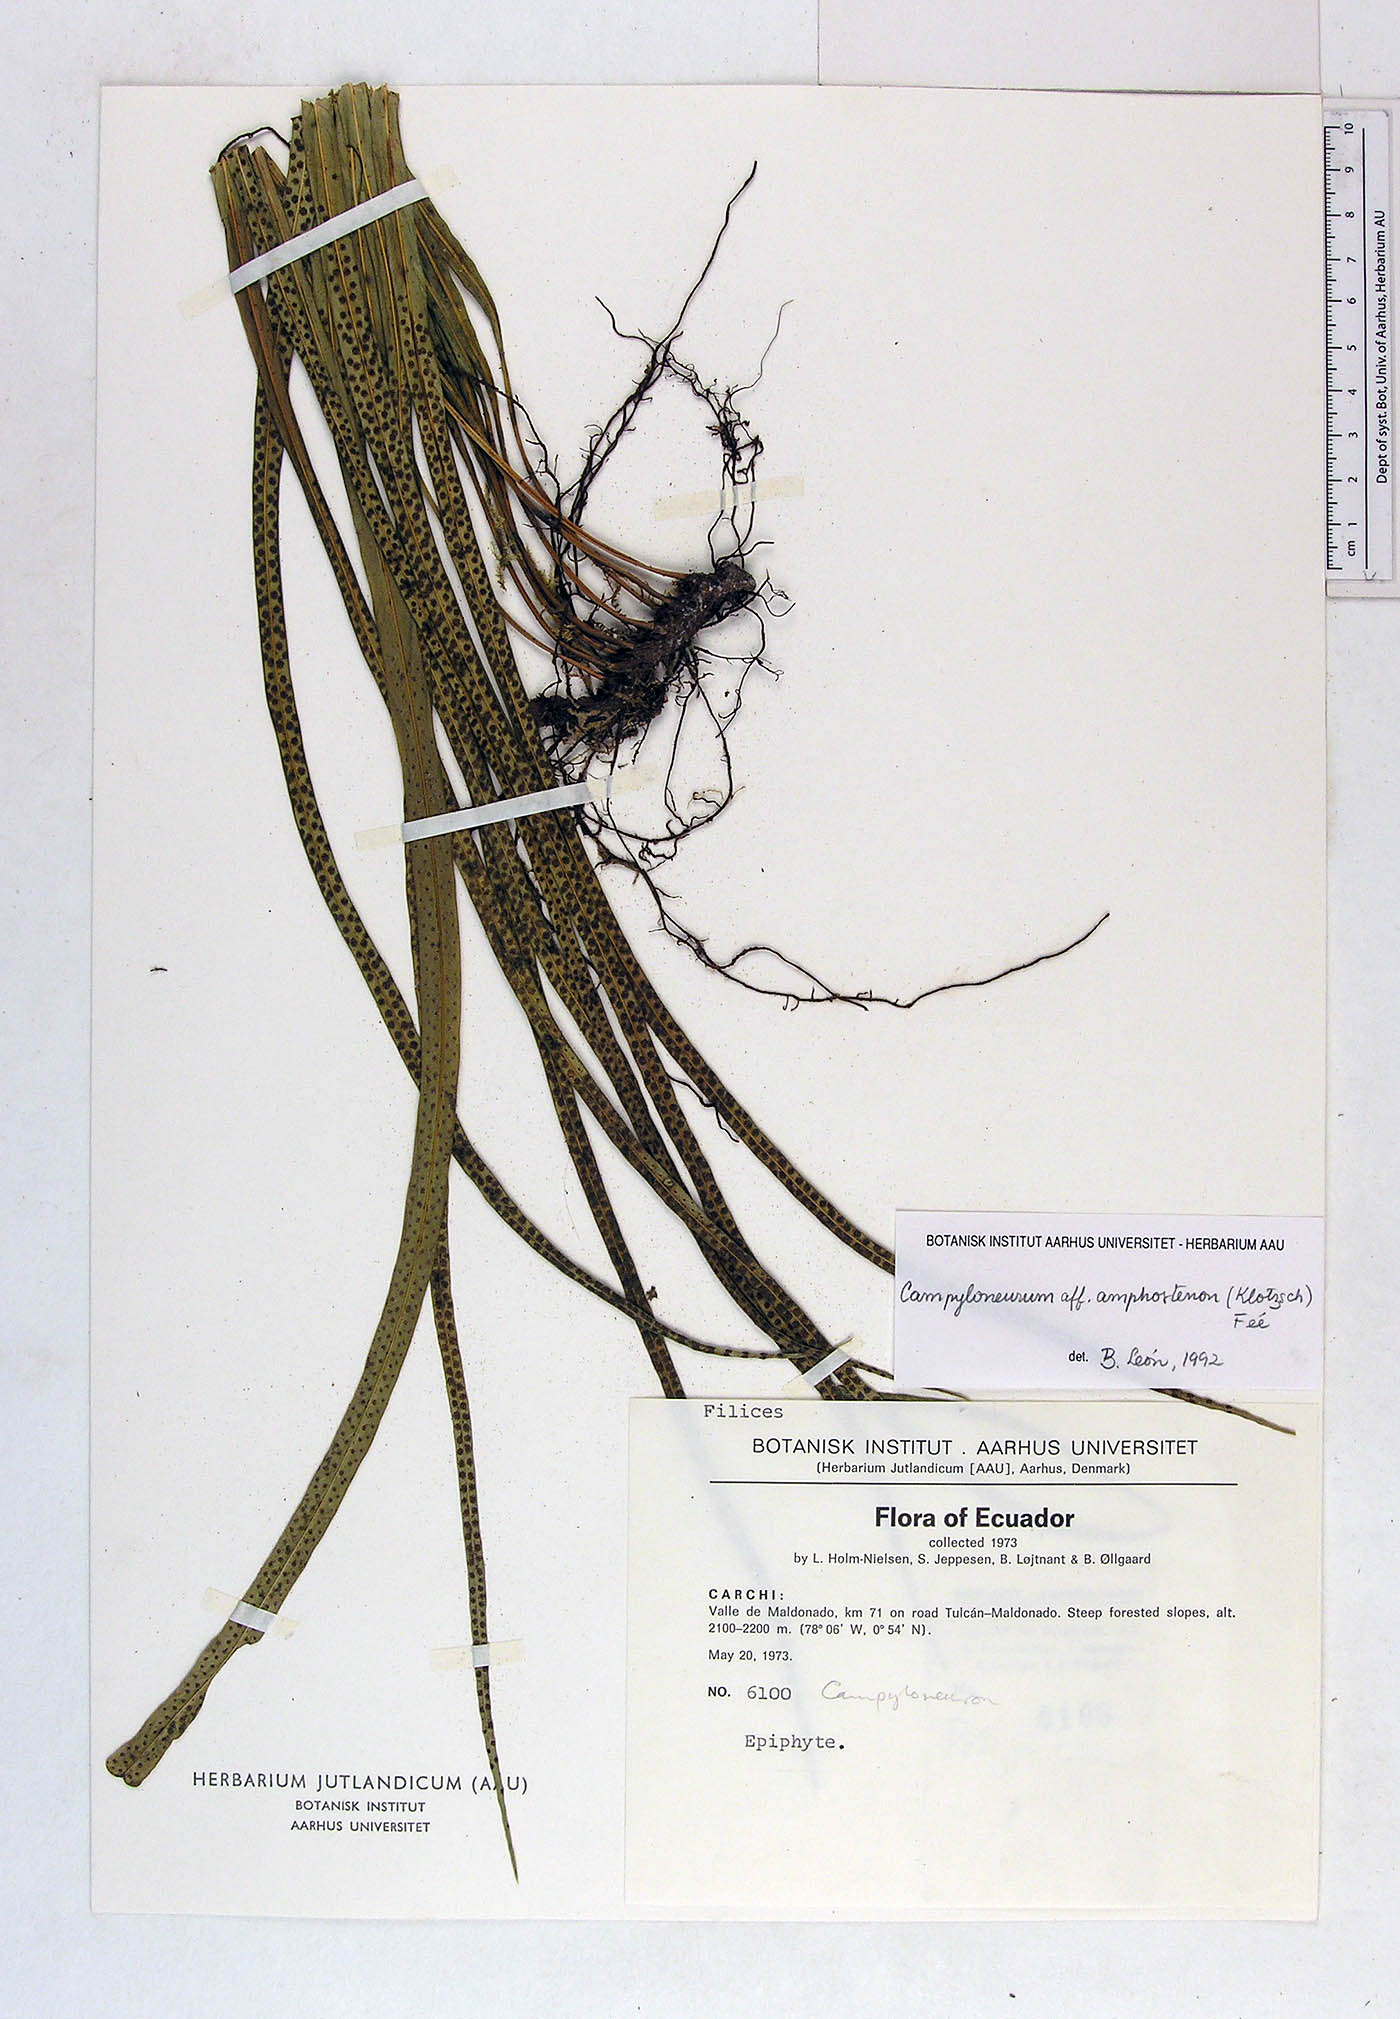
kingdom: Plantae
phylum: Tracheophyta
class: Polypodiopsida
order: Polypodiales
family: Polypodiaceae
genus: Campyloneurum
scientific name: Campyloneurum angustifolium
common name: Narrow-leaf strap fern
